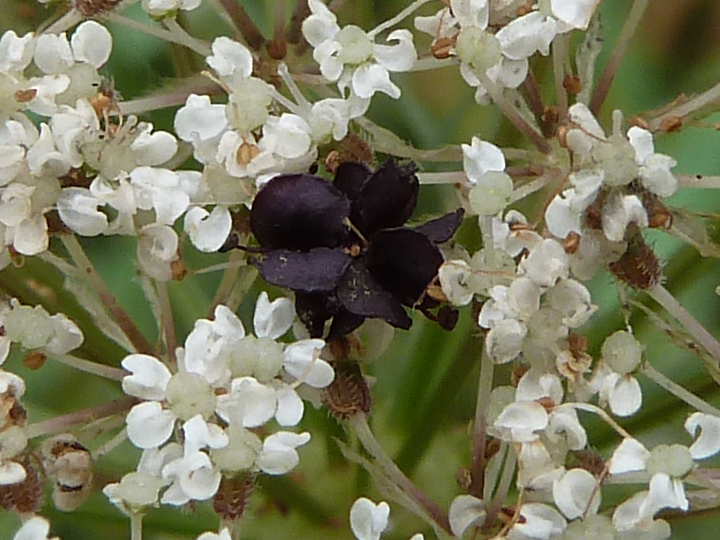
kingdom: Plantae
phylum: Tracheophyta
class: Magnoliopsida
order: Apiales
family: Apiaceae
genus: Daucus
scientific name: Daucus carota
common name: Wild carrot
